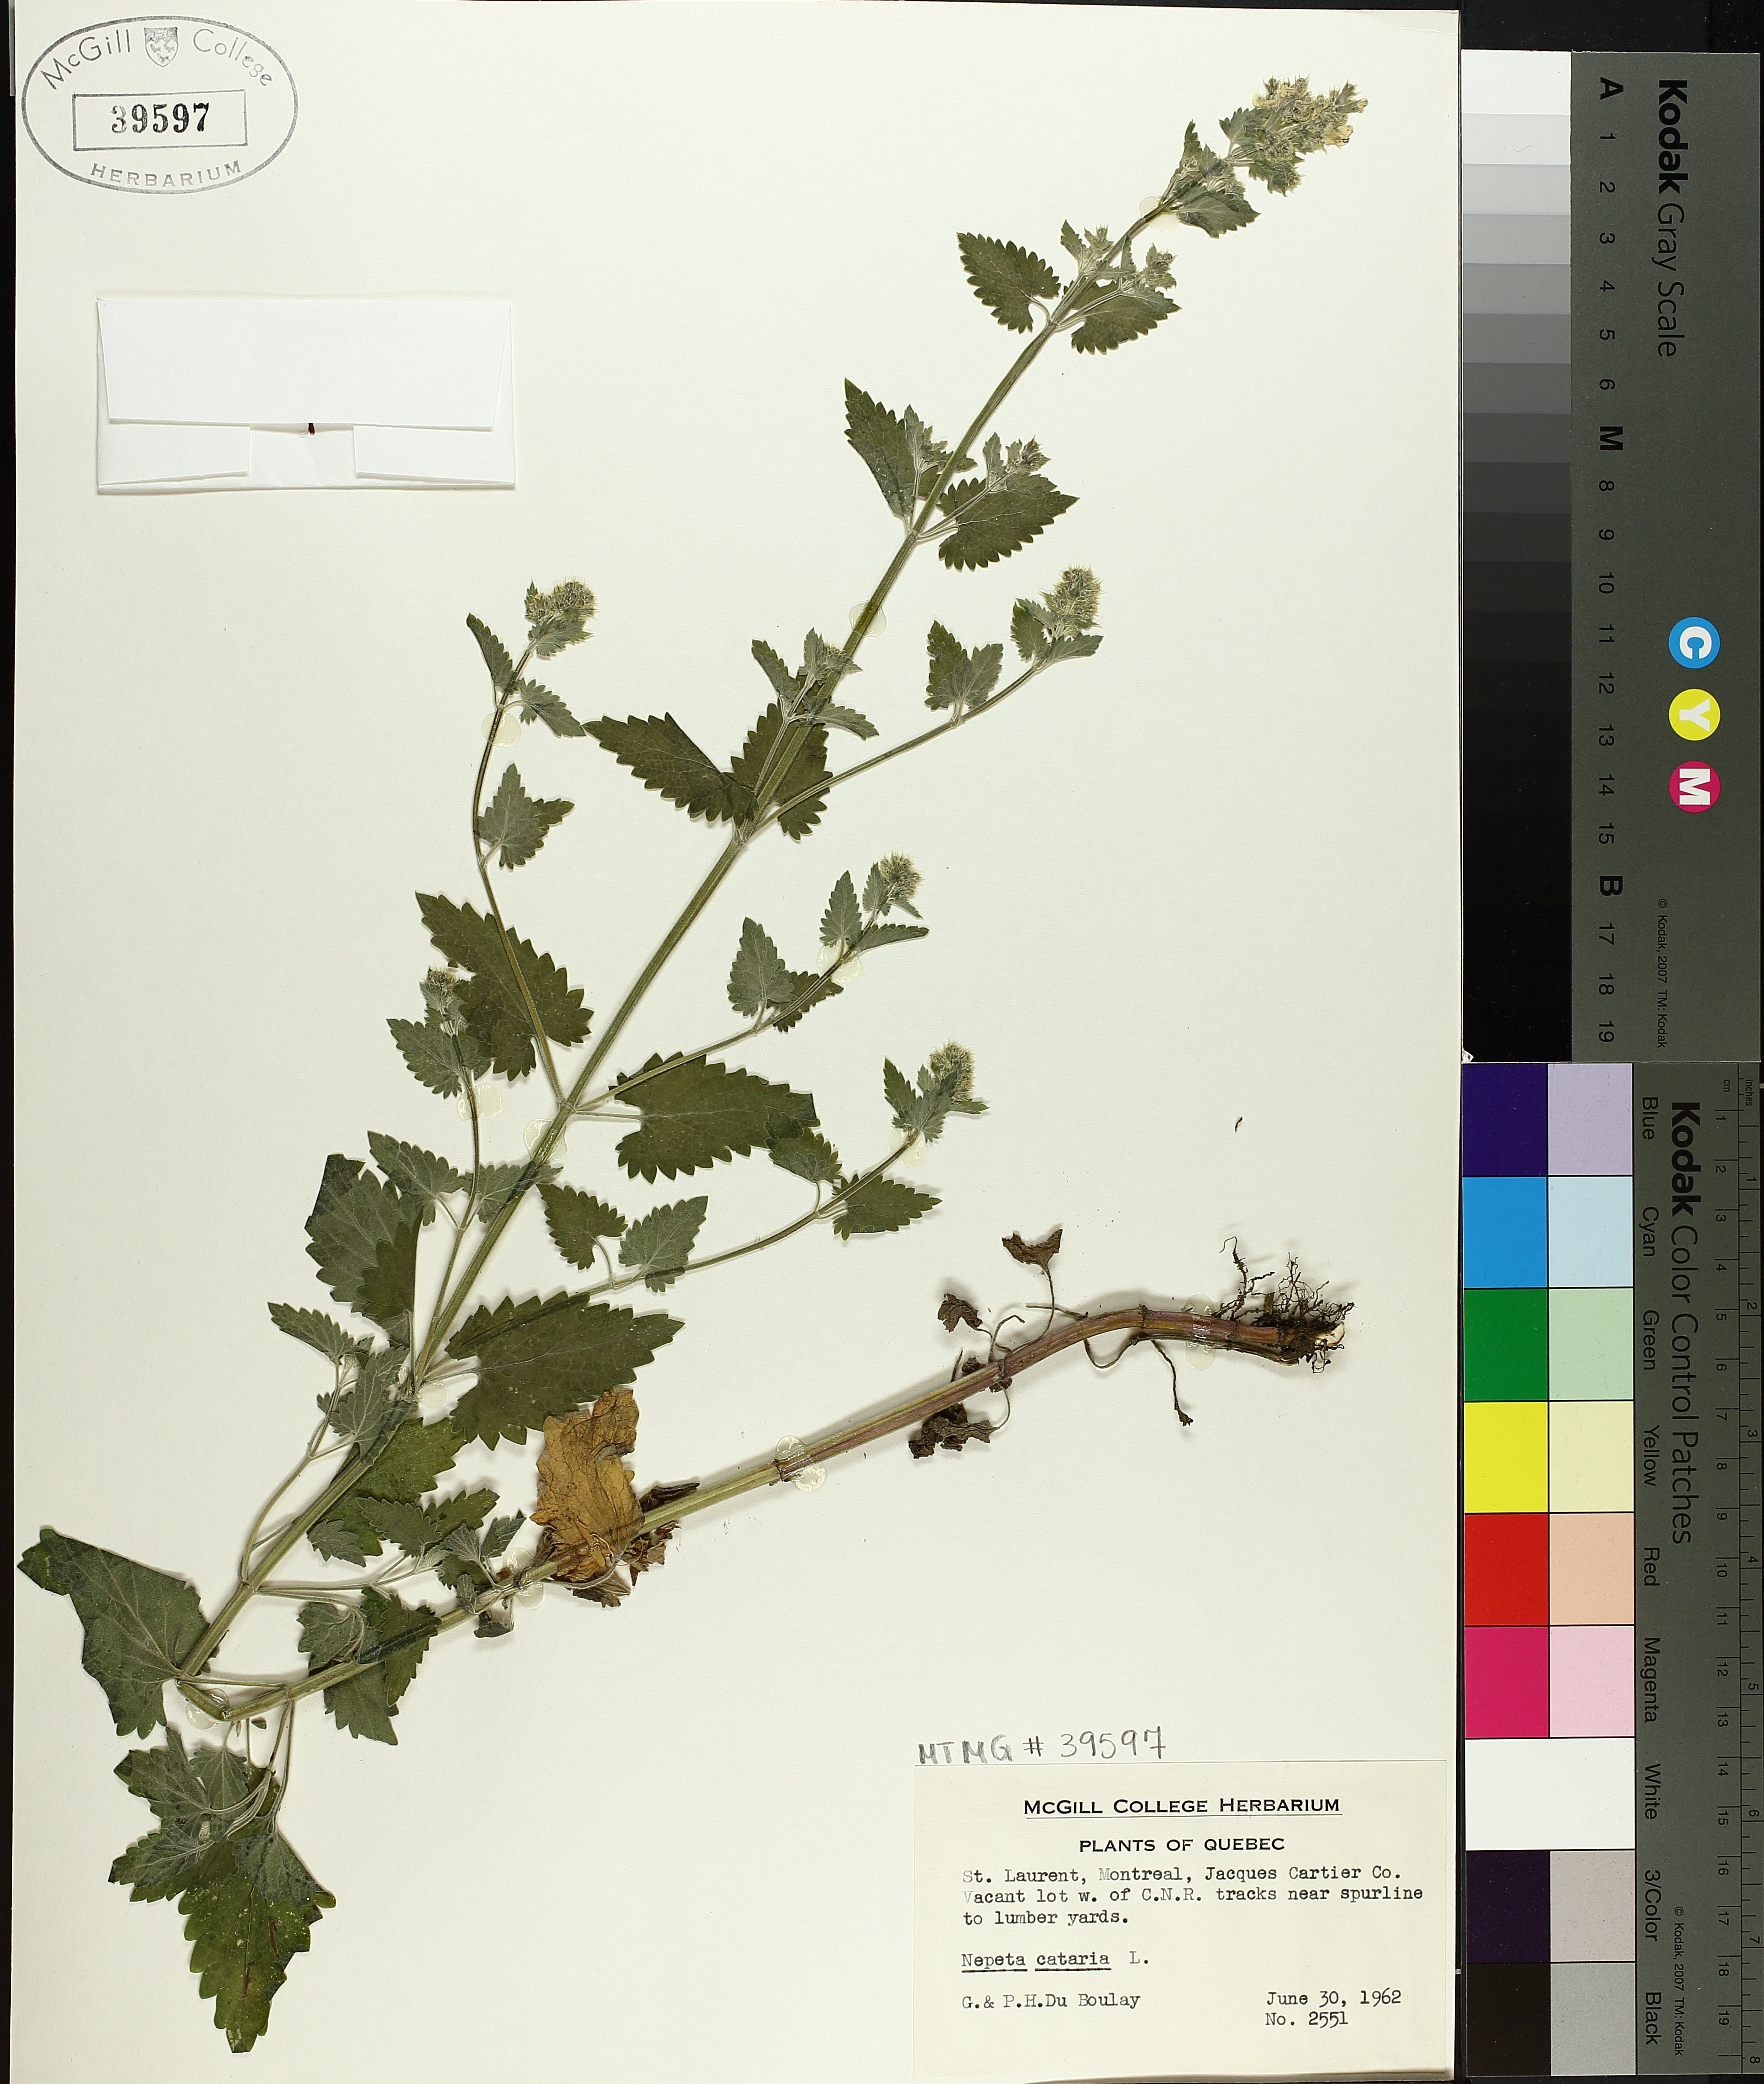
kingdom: Plantae
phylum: Tracheophyta
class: Magnoliopsida
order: Lamiales
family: Lamiaceae
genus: Nepeta
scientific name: Nepeta cataria
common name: Catnip
